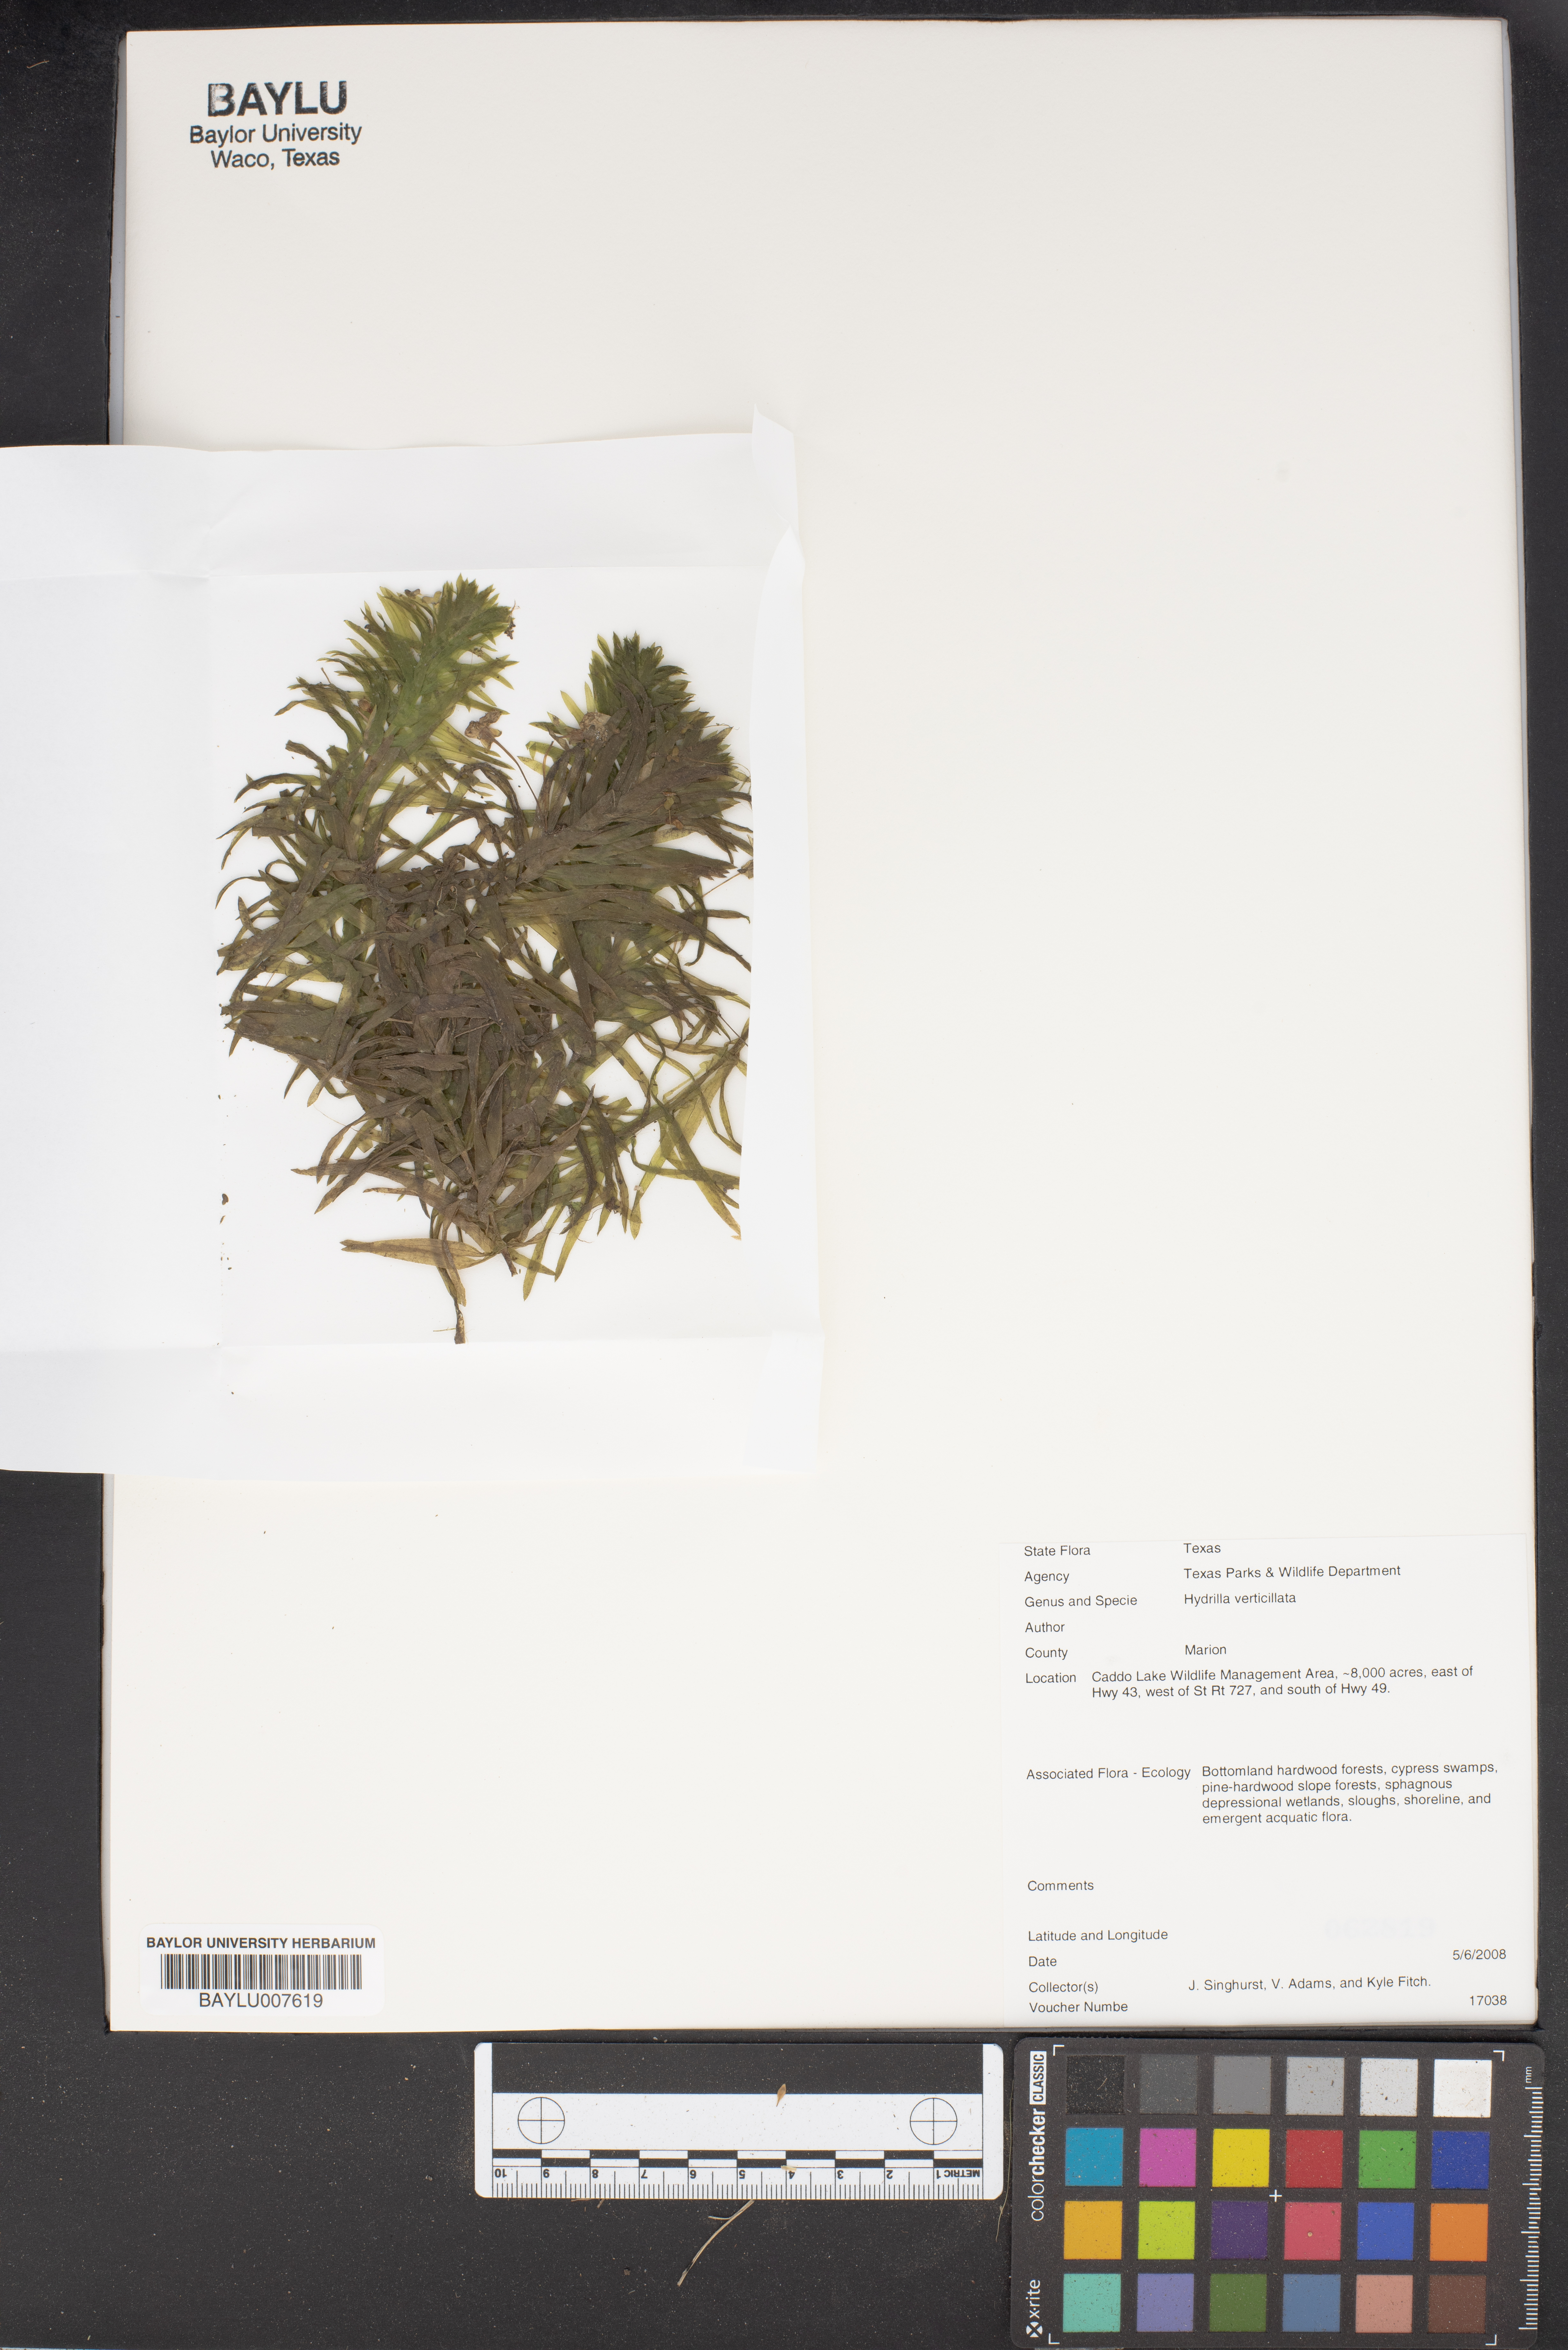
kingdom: Plantae
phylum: Tracheophyta
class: Liliopsida
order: Alismatales
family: Hydrocharitaceae
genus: Hydrilla
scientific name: Hydrilla verticillata
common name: Florida-elodea
